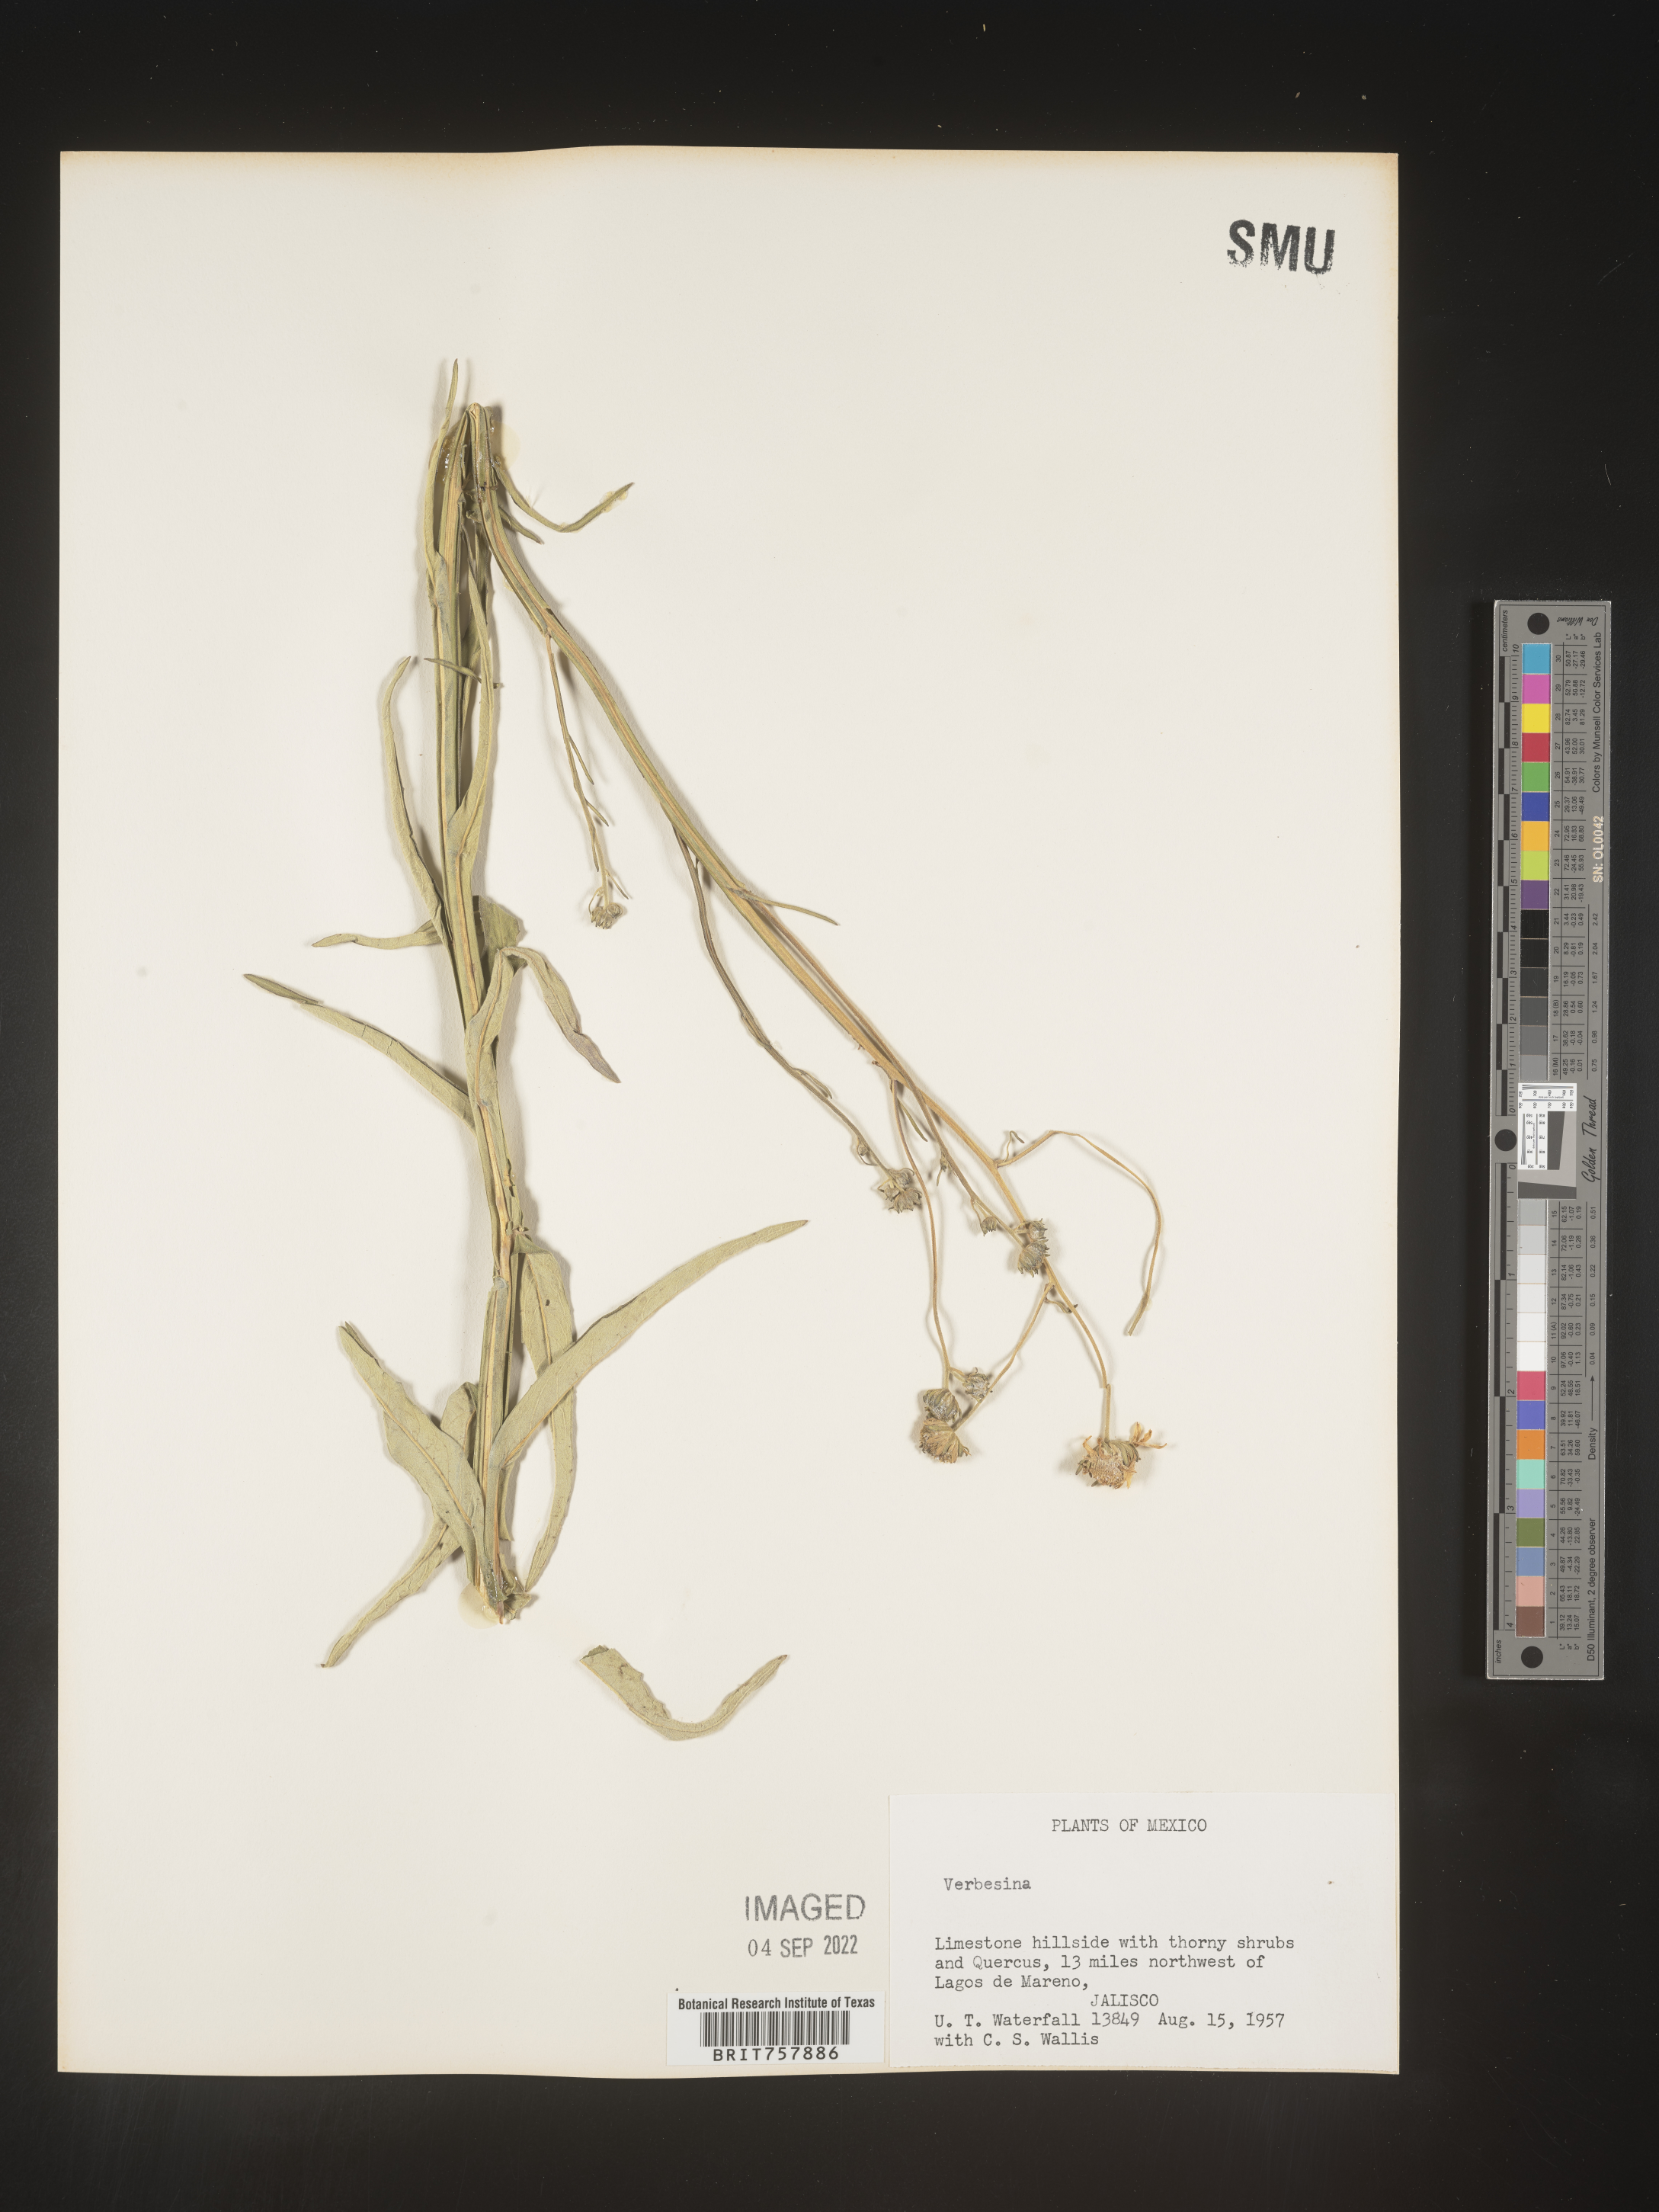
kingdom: Plantae
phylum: Tracheophyta
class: Magnoliopsida
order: Asterales
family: Asteraceae
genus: Verbesina
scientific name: Verbesina
